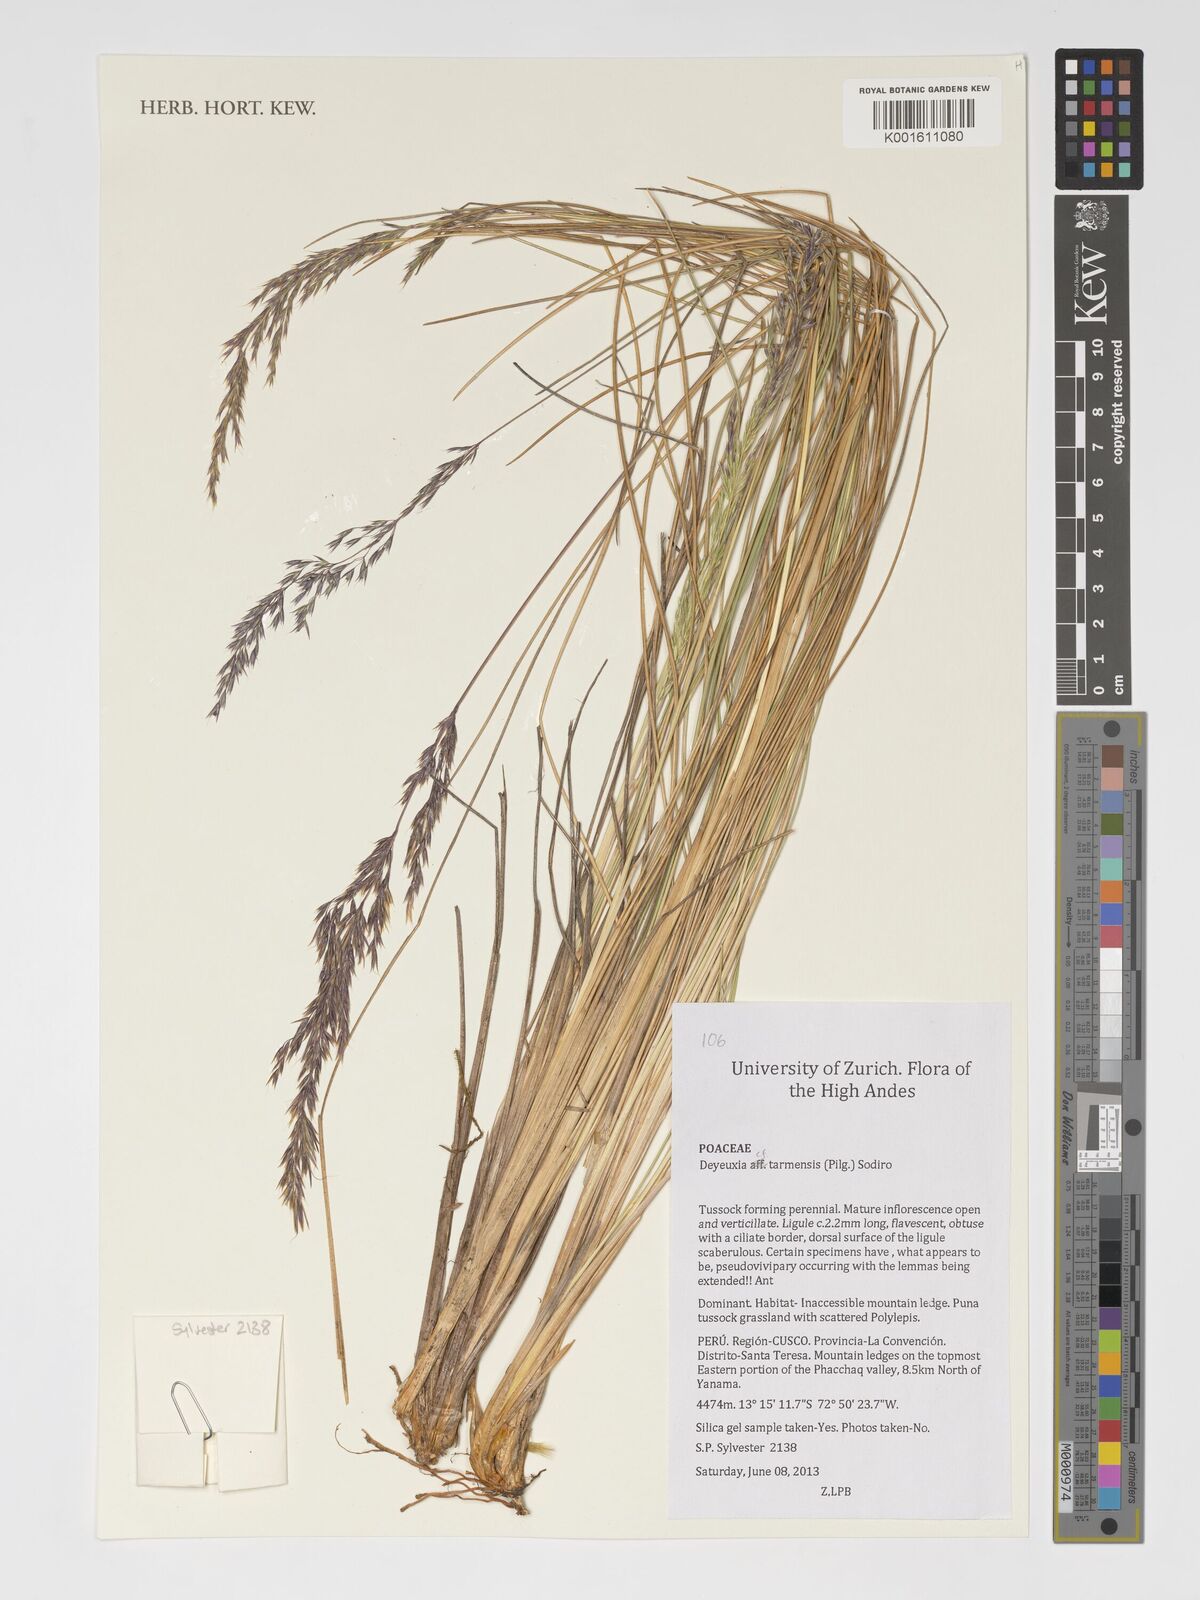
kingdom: Plantae
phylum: Tracheophyta
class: Liliopsida
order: Poales
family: Poaceae
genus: Cinnagrostis
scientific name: Cinnagrostis tarmensis
